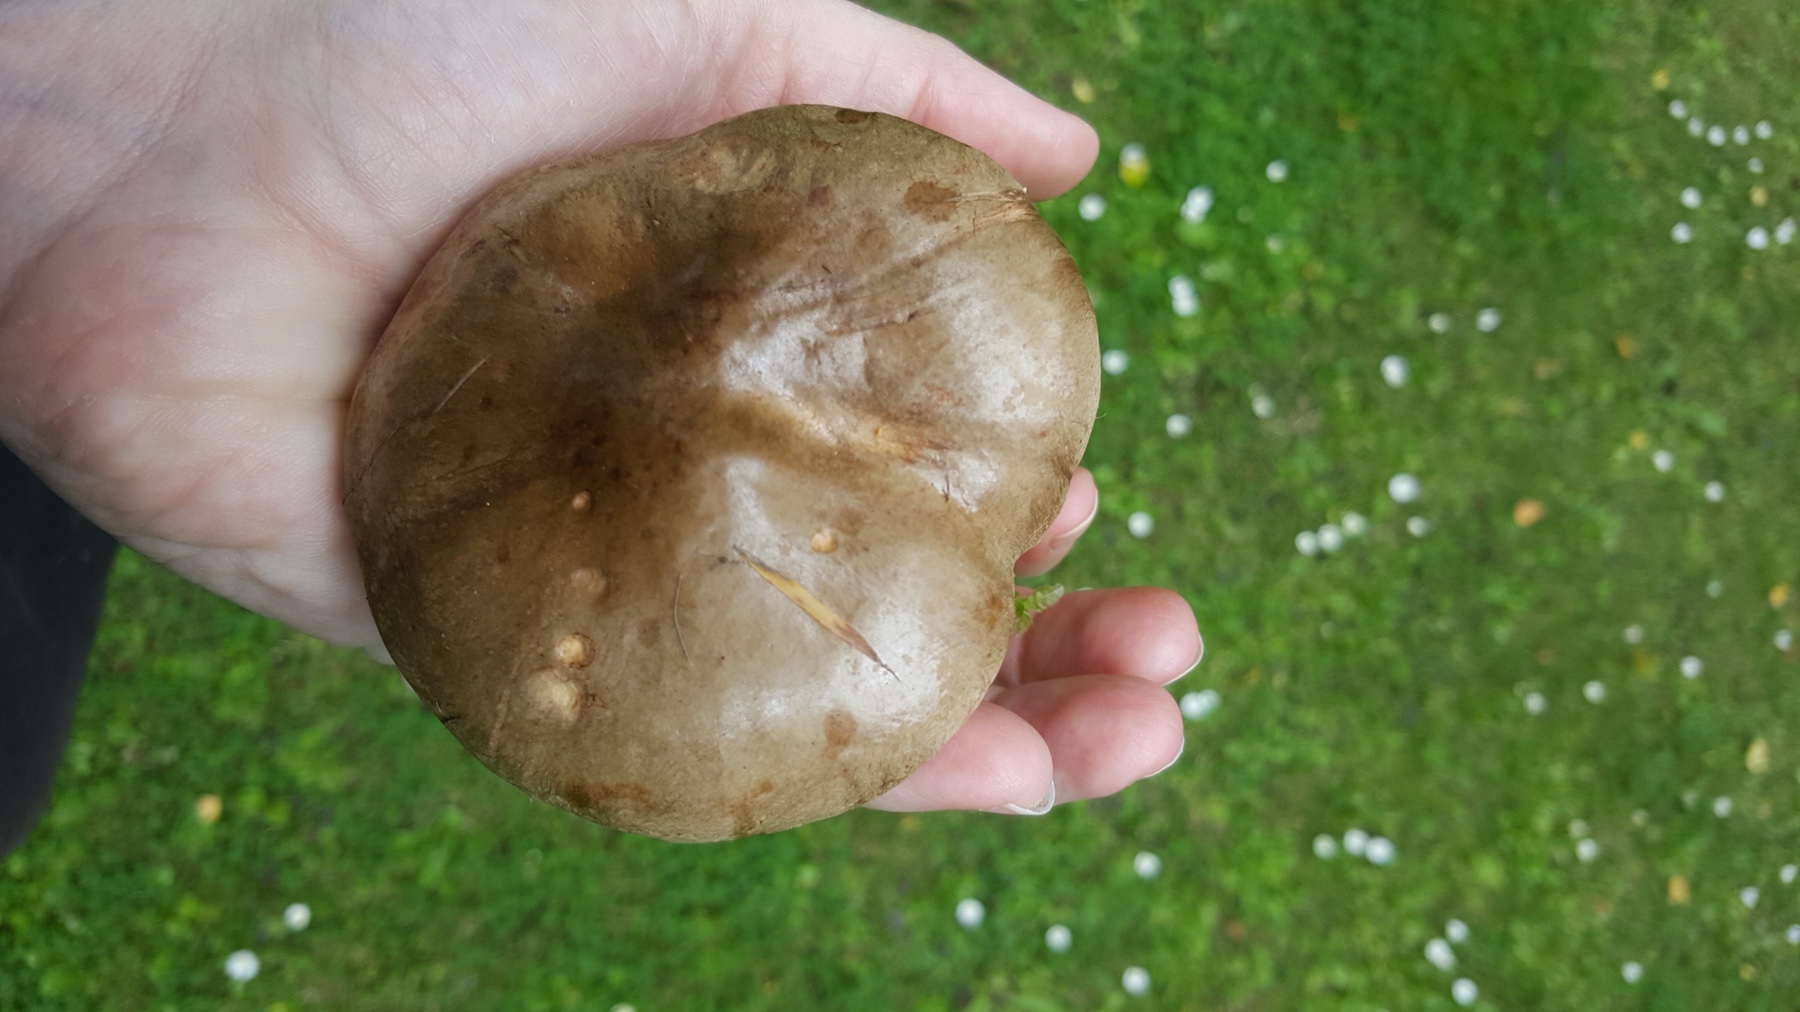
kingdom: Fungi
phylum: Basidiomycota
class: Agaricomycetes
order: Boletales
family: Paxillaceae
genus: Paxillus
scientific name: Paxillus obscurisporus
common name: mahognisporet netbladhat
